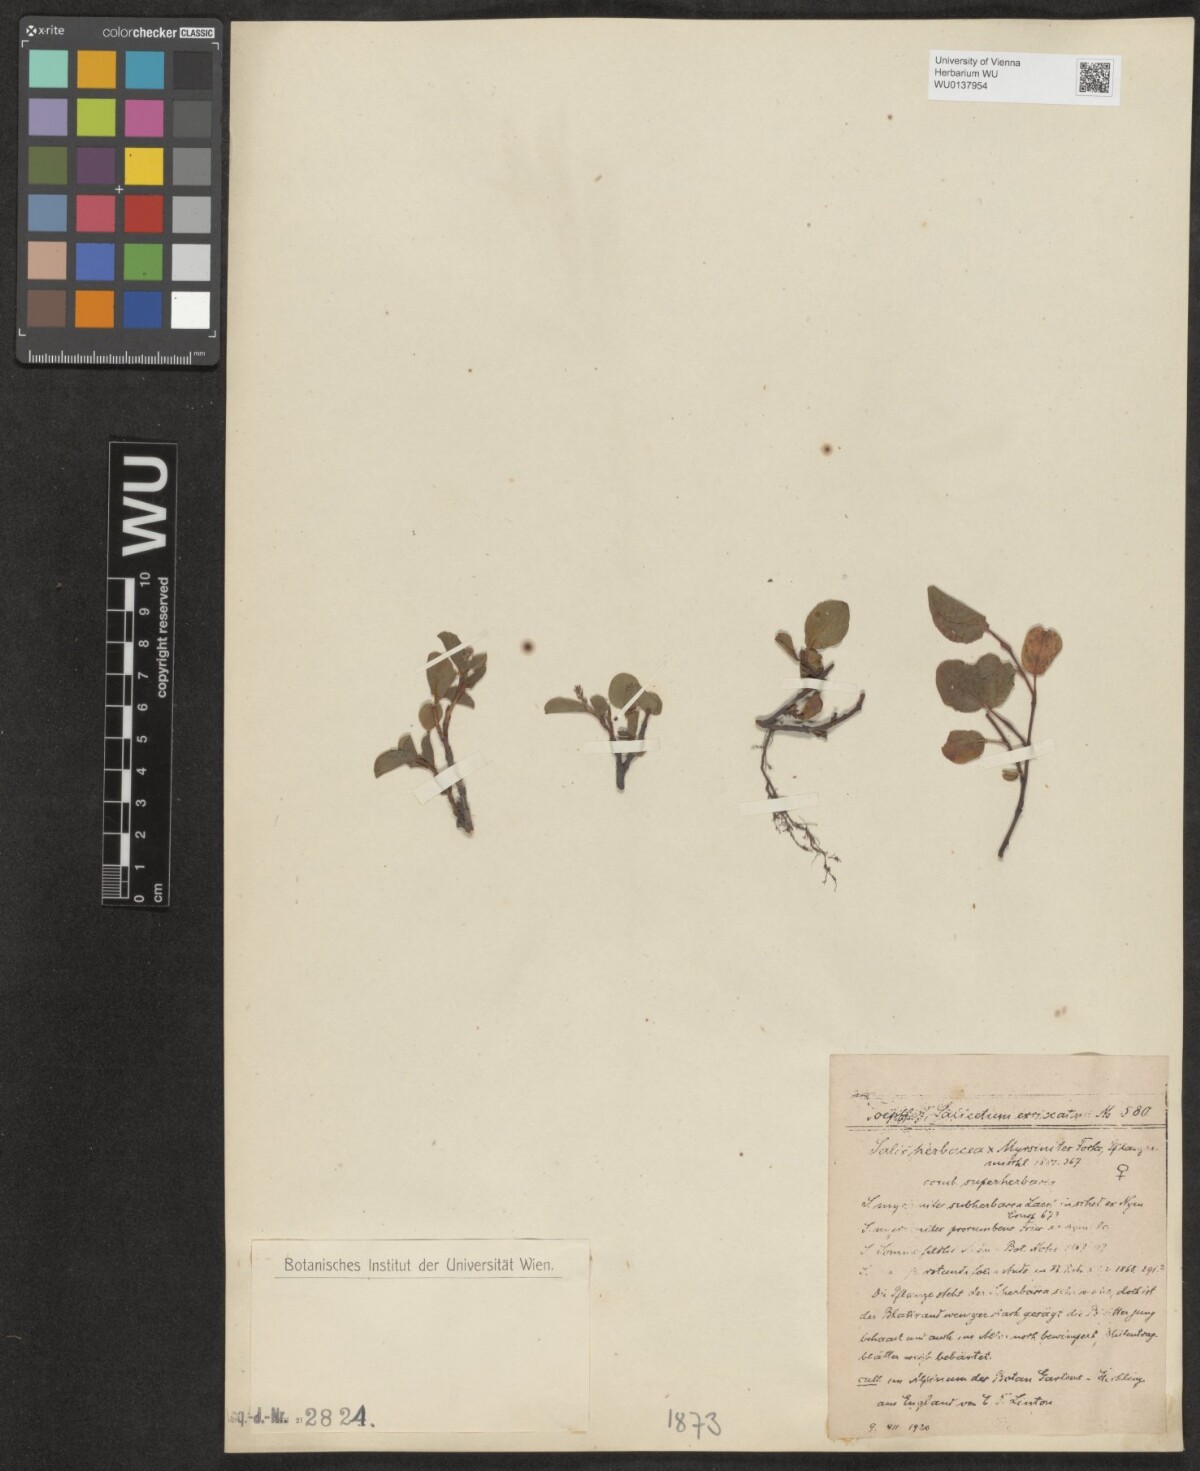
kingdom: Plantae
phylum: Tracheophyta
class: Magnoliopsida
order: Malpighiales
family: Salicaceae
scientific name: Salicaceae
